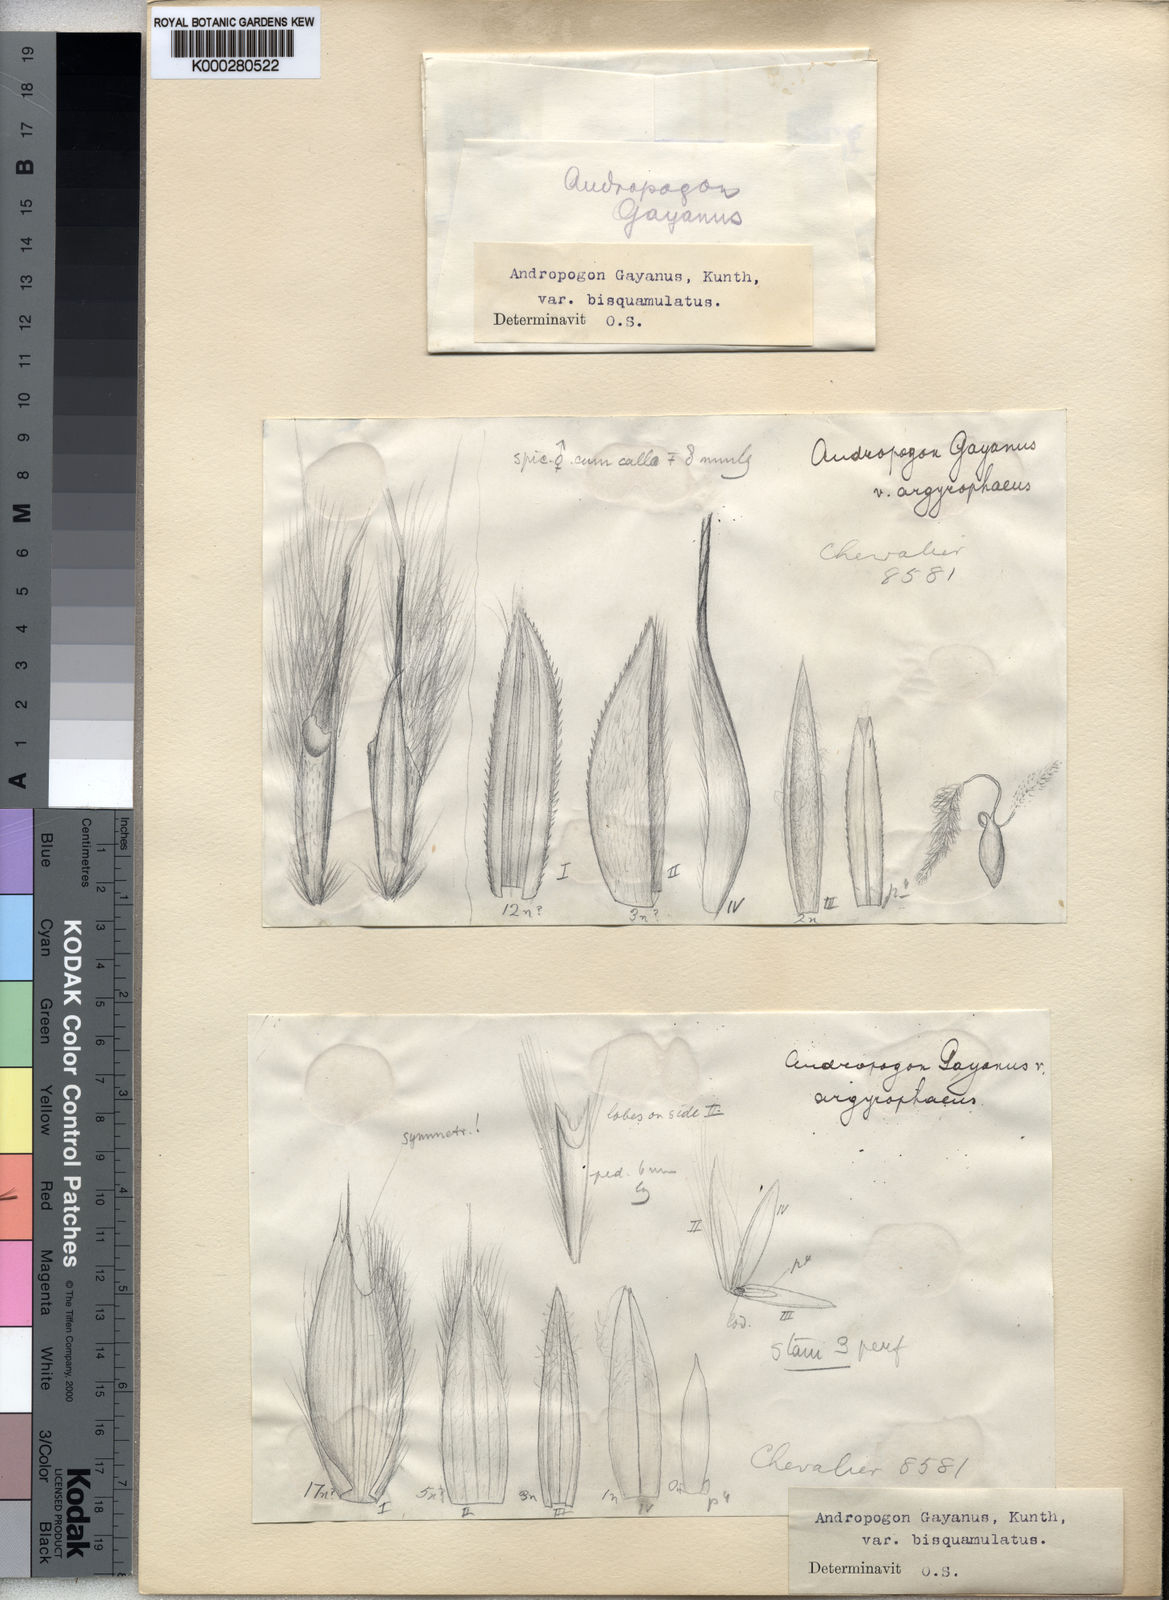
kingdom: Plantae
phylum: Tracheophyta
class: Liliopsida
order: Poales
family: Poaceae
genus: Andropogon
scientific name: Andropogon gayanus
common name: Tambuki grass
